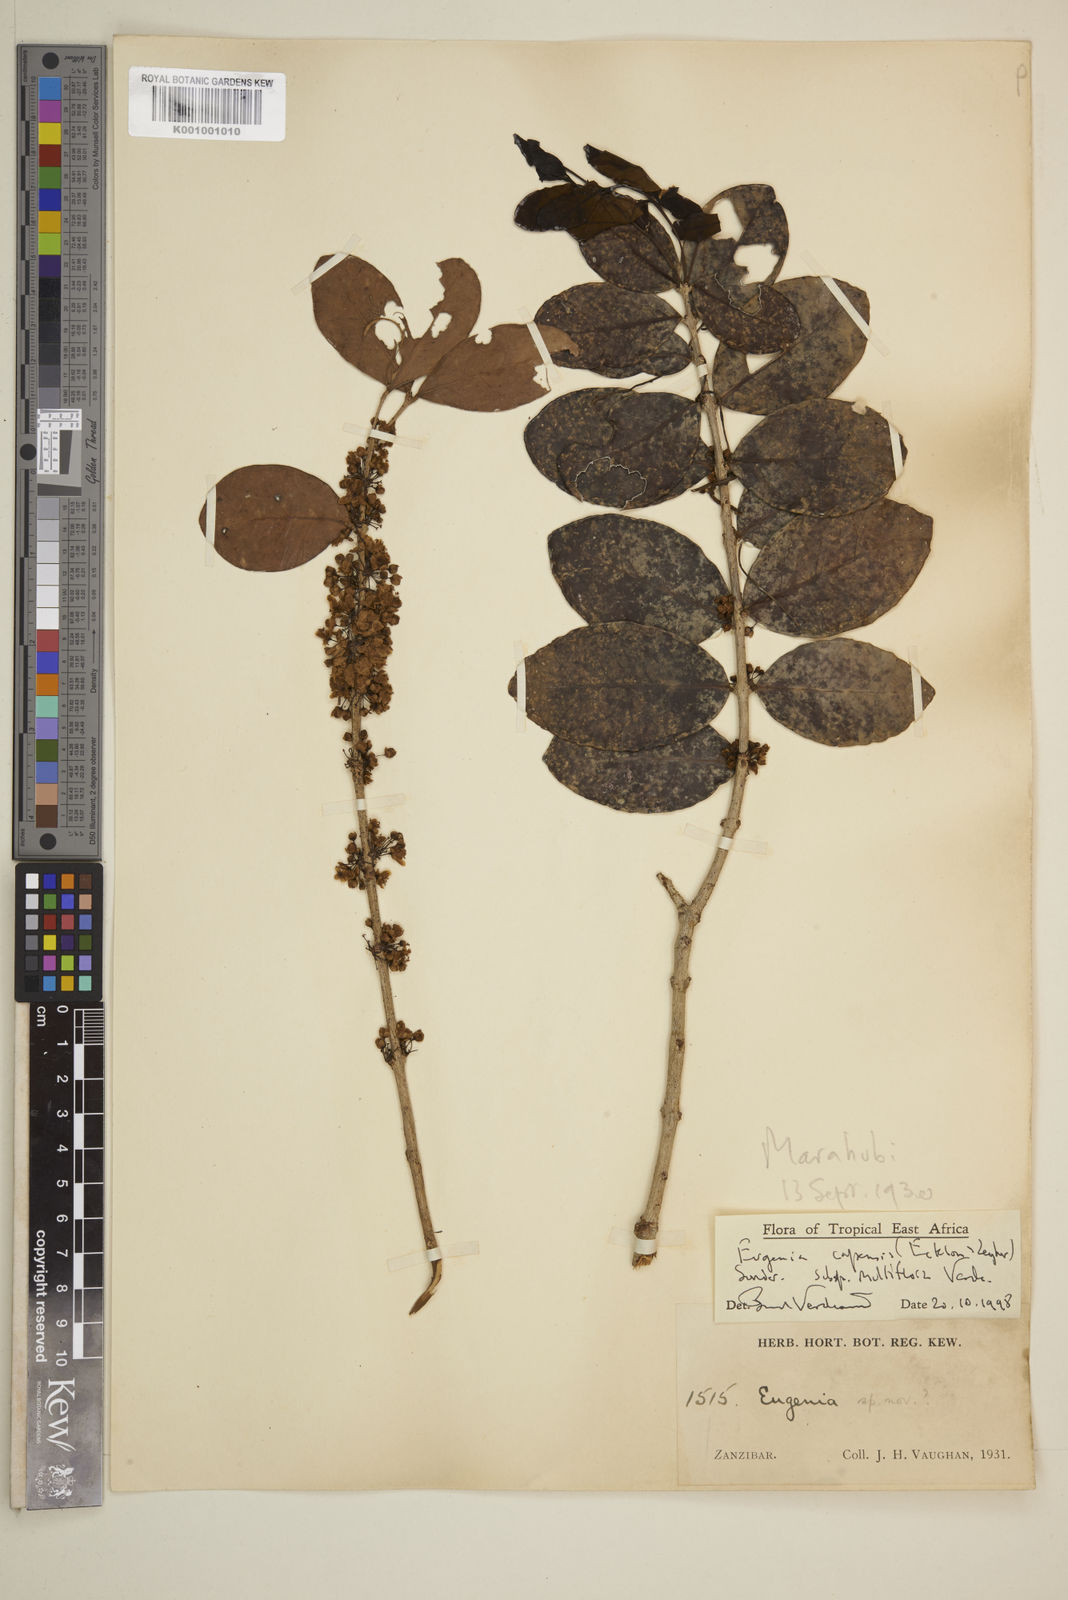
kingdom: Plantae
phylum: Tracheophyta
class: Magnoliopsida
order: Myrtales
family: Myrtaceae
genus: Eugenia
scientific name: Eugenia capensis
